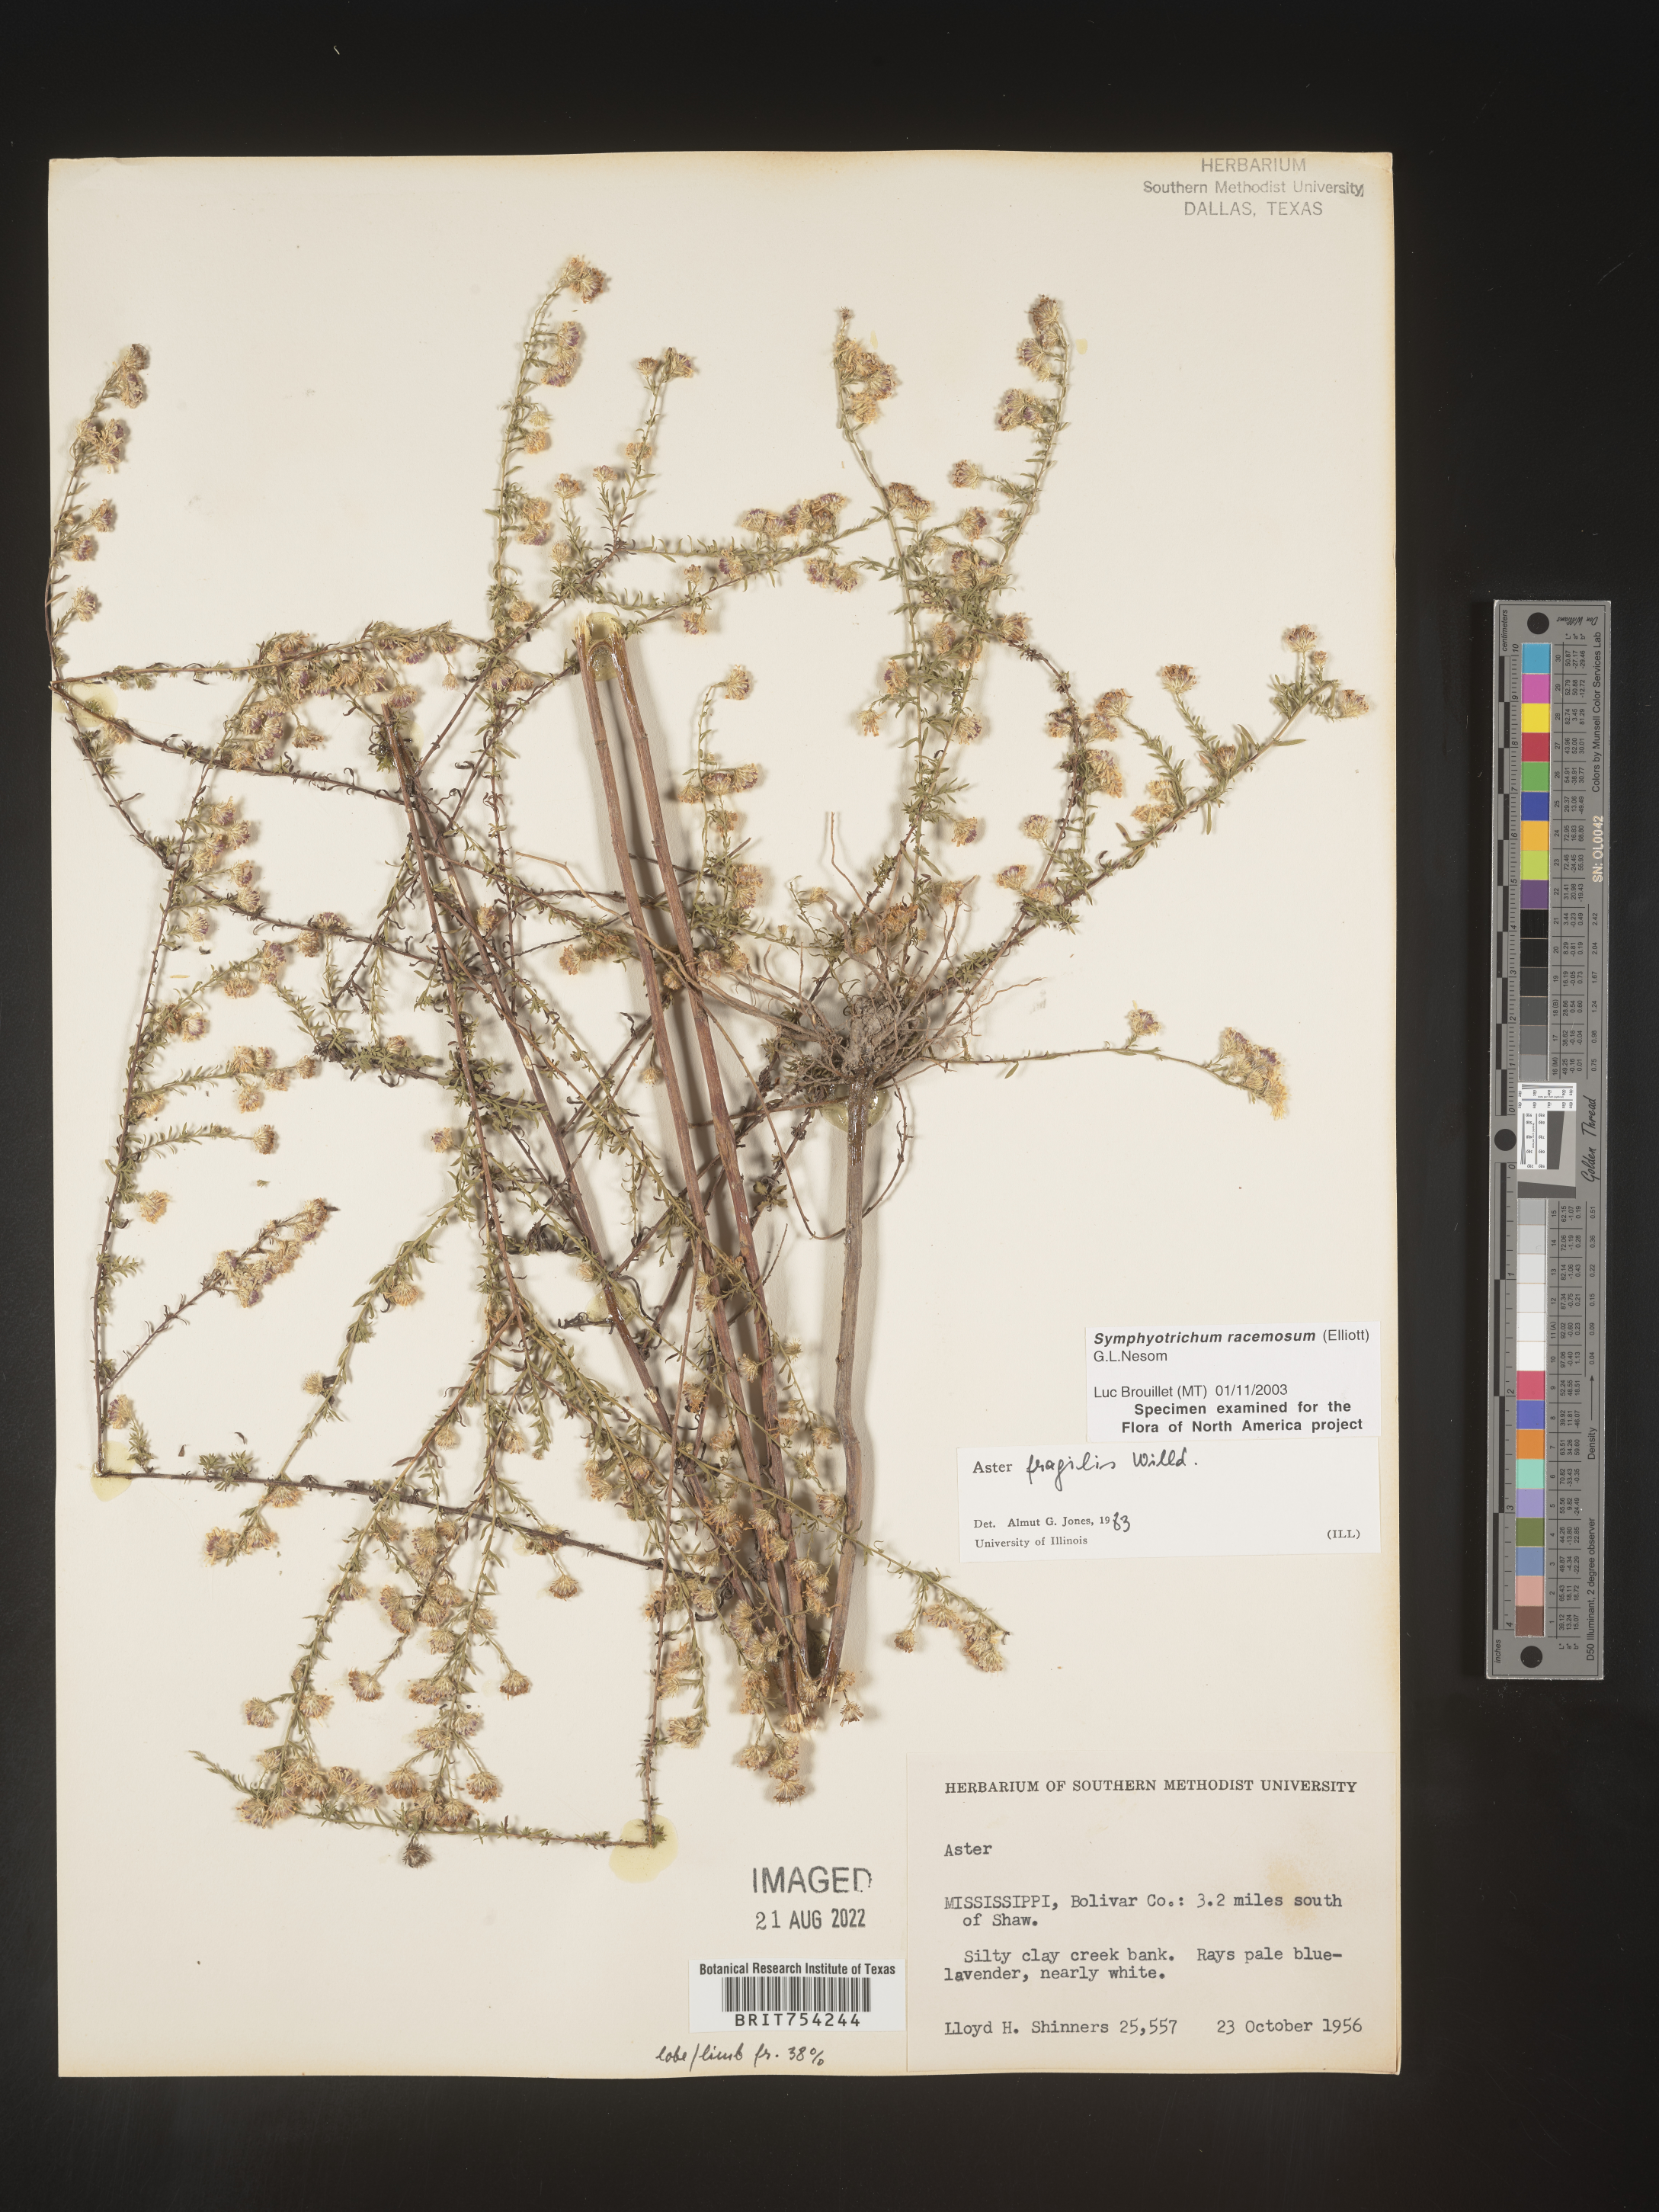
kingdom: Plantae
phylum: Tracheophyta
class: Magnoliopsida
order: Asterales
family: Asteraceae
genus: Symphyotrichum
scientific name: Symphyotrichum racemosum
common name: Small white aster
